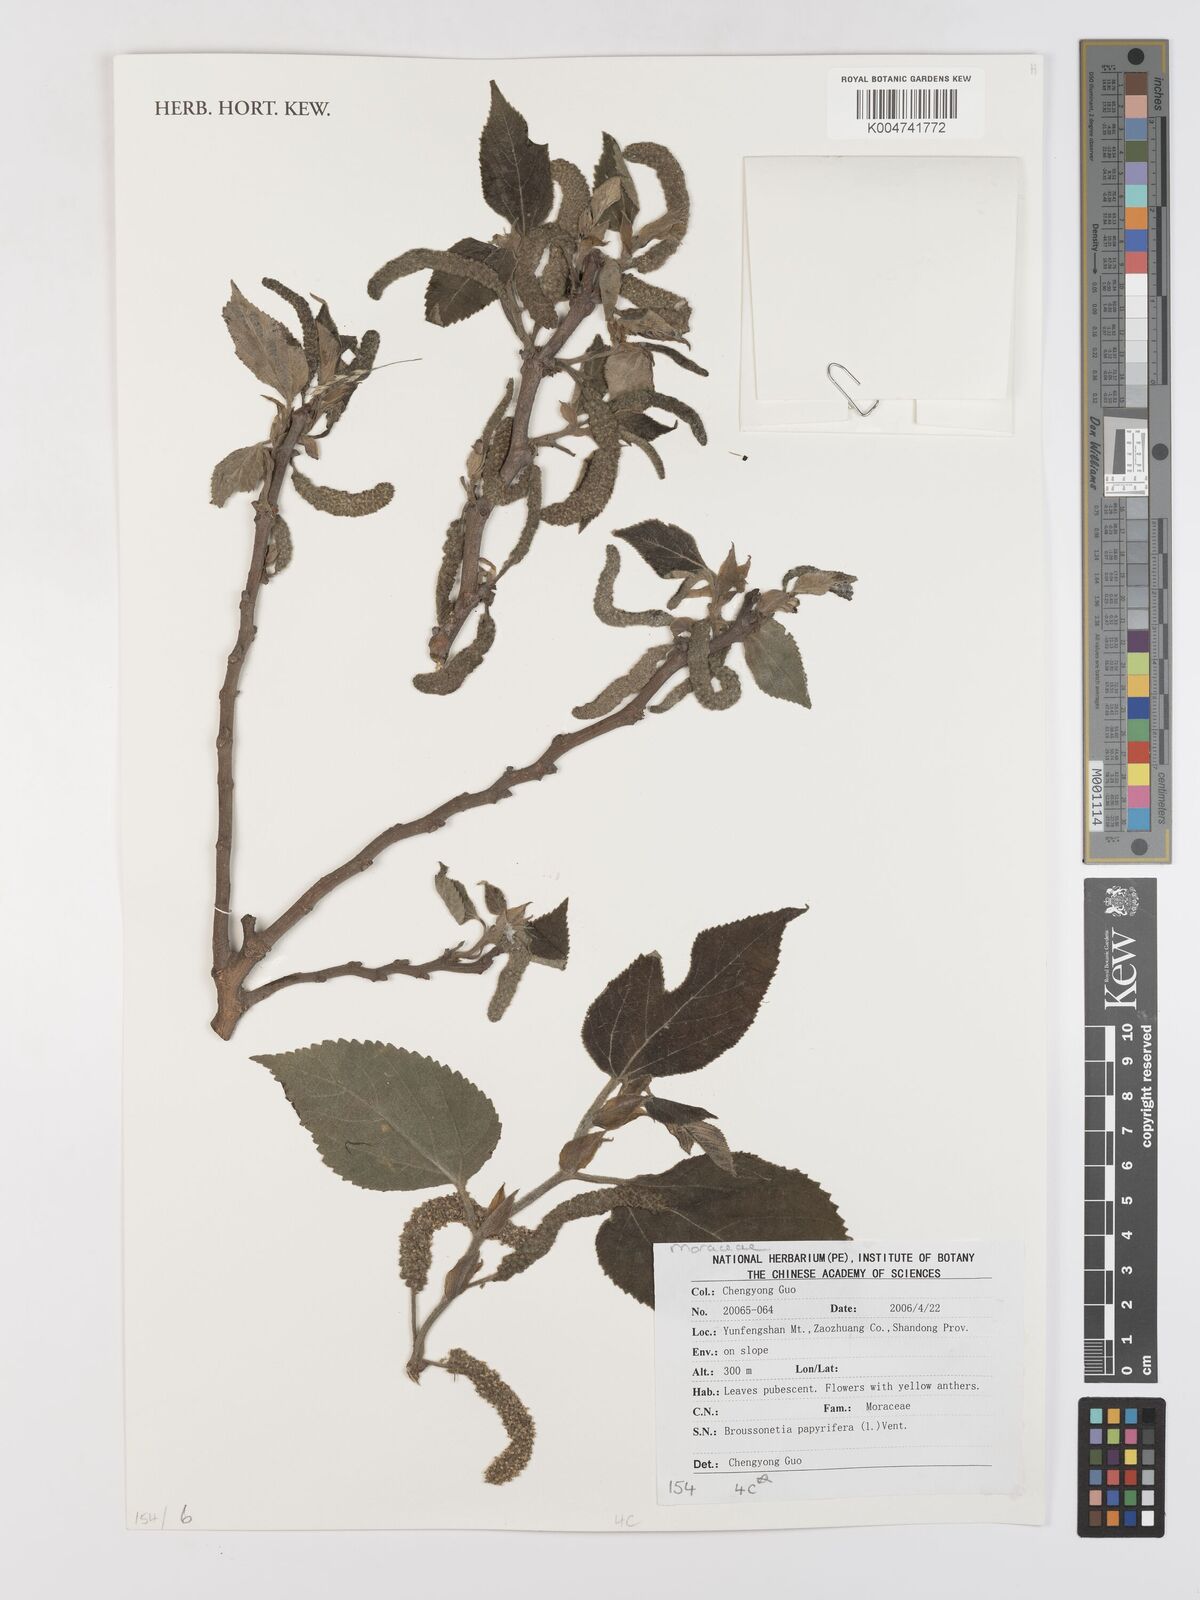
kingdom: Plantae
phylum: Tracheophyta
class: Magnoliopsida
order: Rosales
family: Moraceae
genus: Broussonetia
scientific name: Broussonetia papyrifera
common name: Paper mulberry
